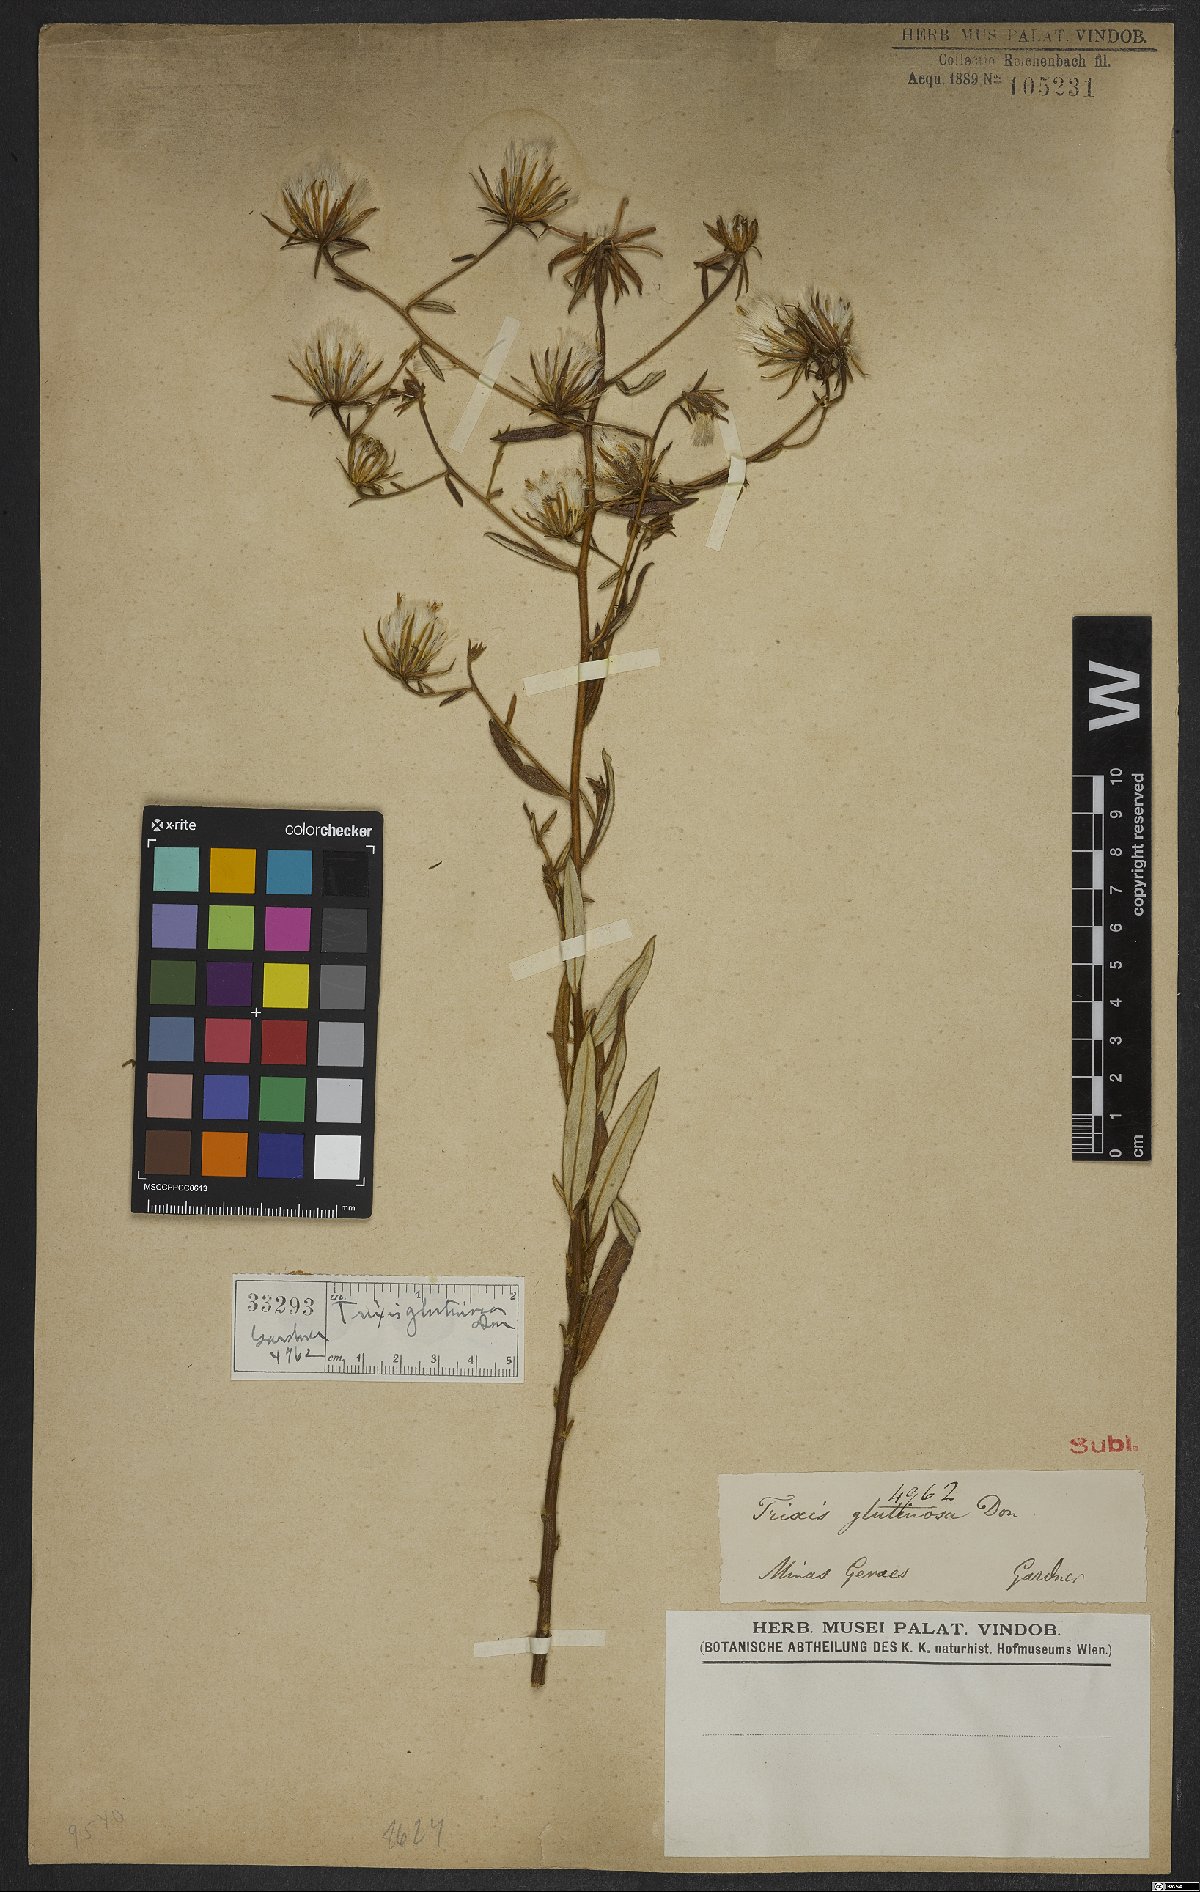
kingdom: Plantae
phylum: Tracheophyta
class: Magnoliopsida
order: Asterales
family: Asteraceae
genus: Trixis
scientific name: Trixis glutinosa
